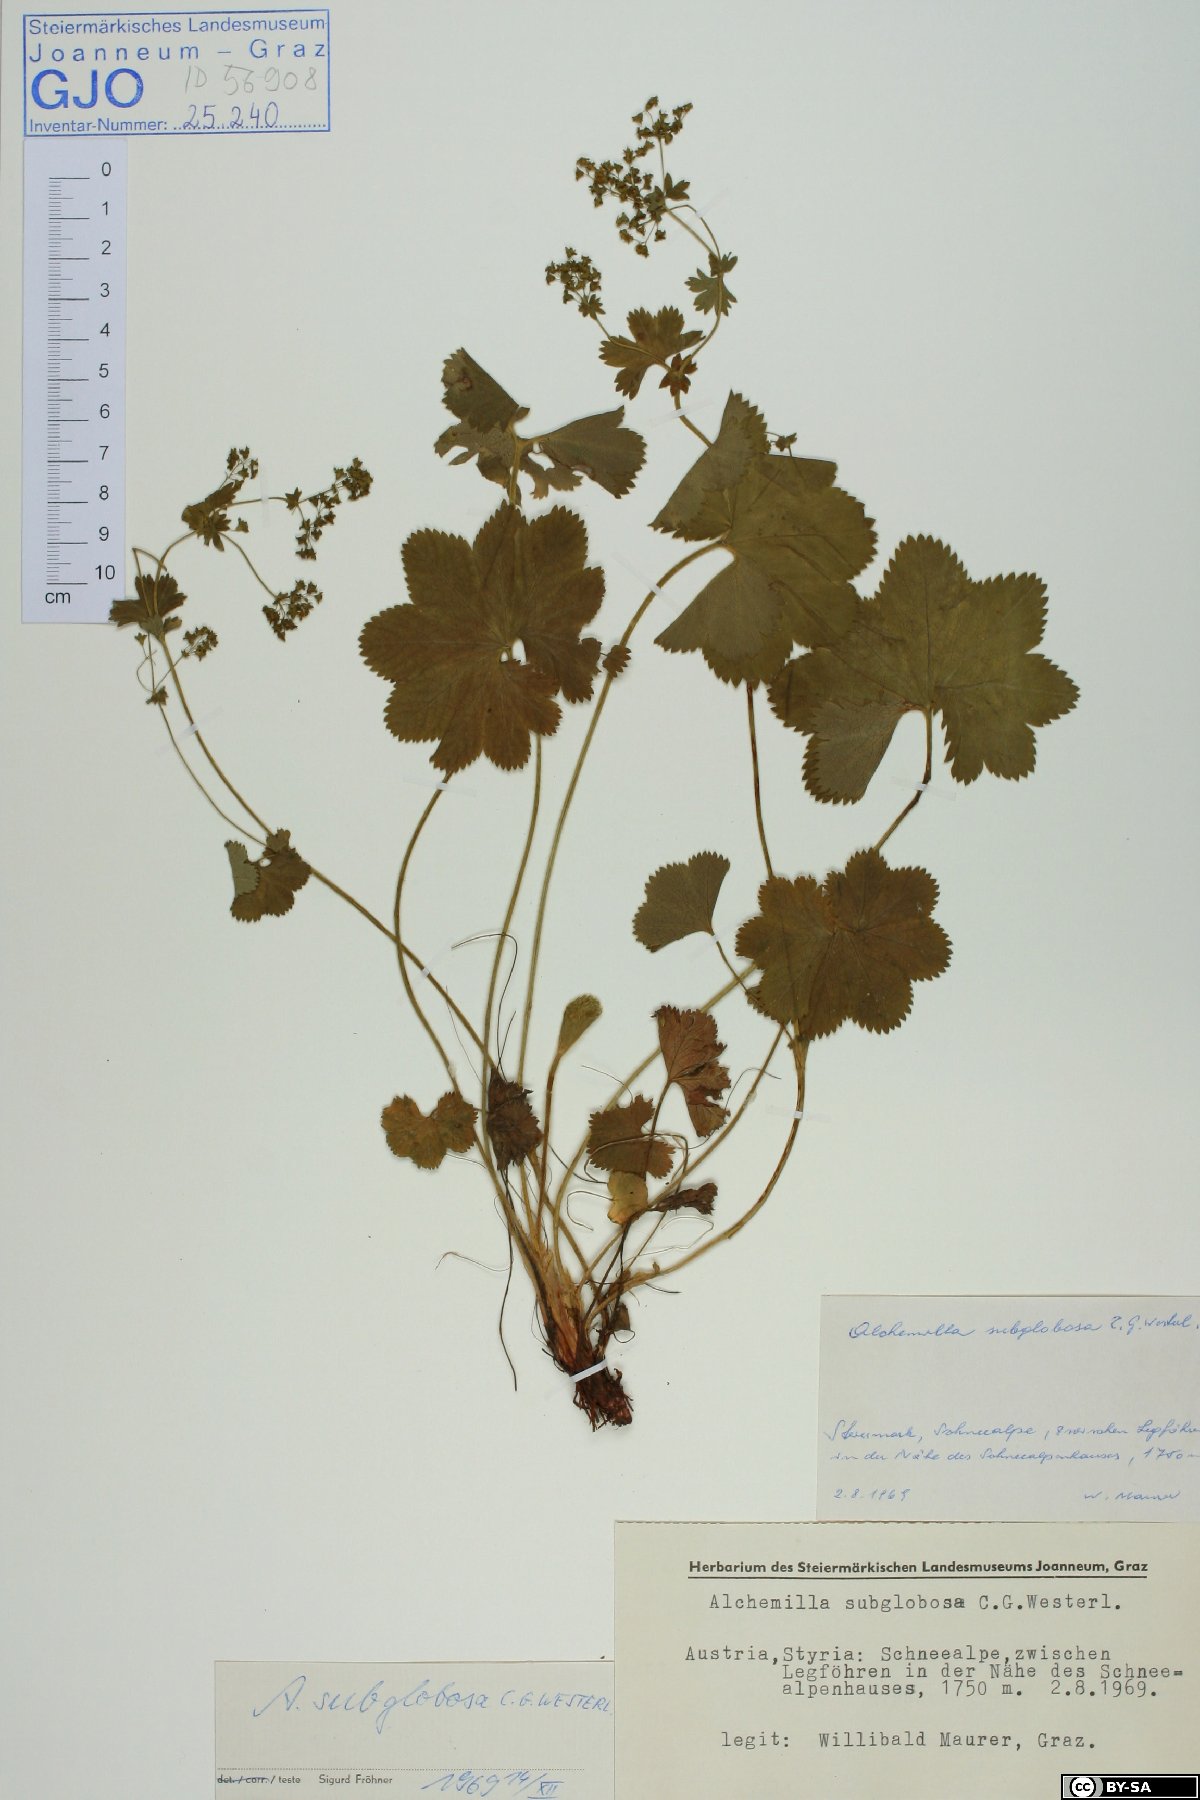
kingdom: Plantae
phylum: Tracheophyta
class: Magnoliopsida
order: Rosales
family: Rosaceae
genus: Alchemilla
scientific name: Alchemilla subglobosa
